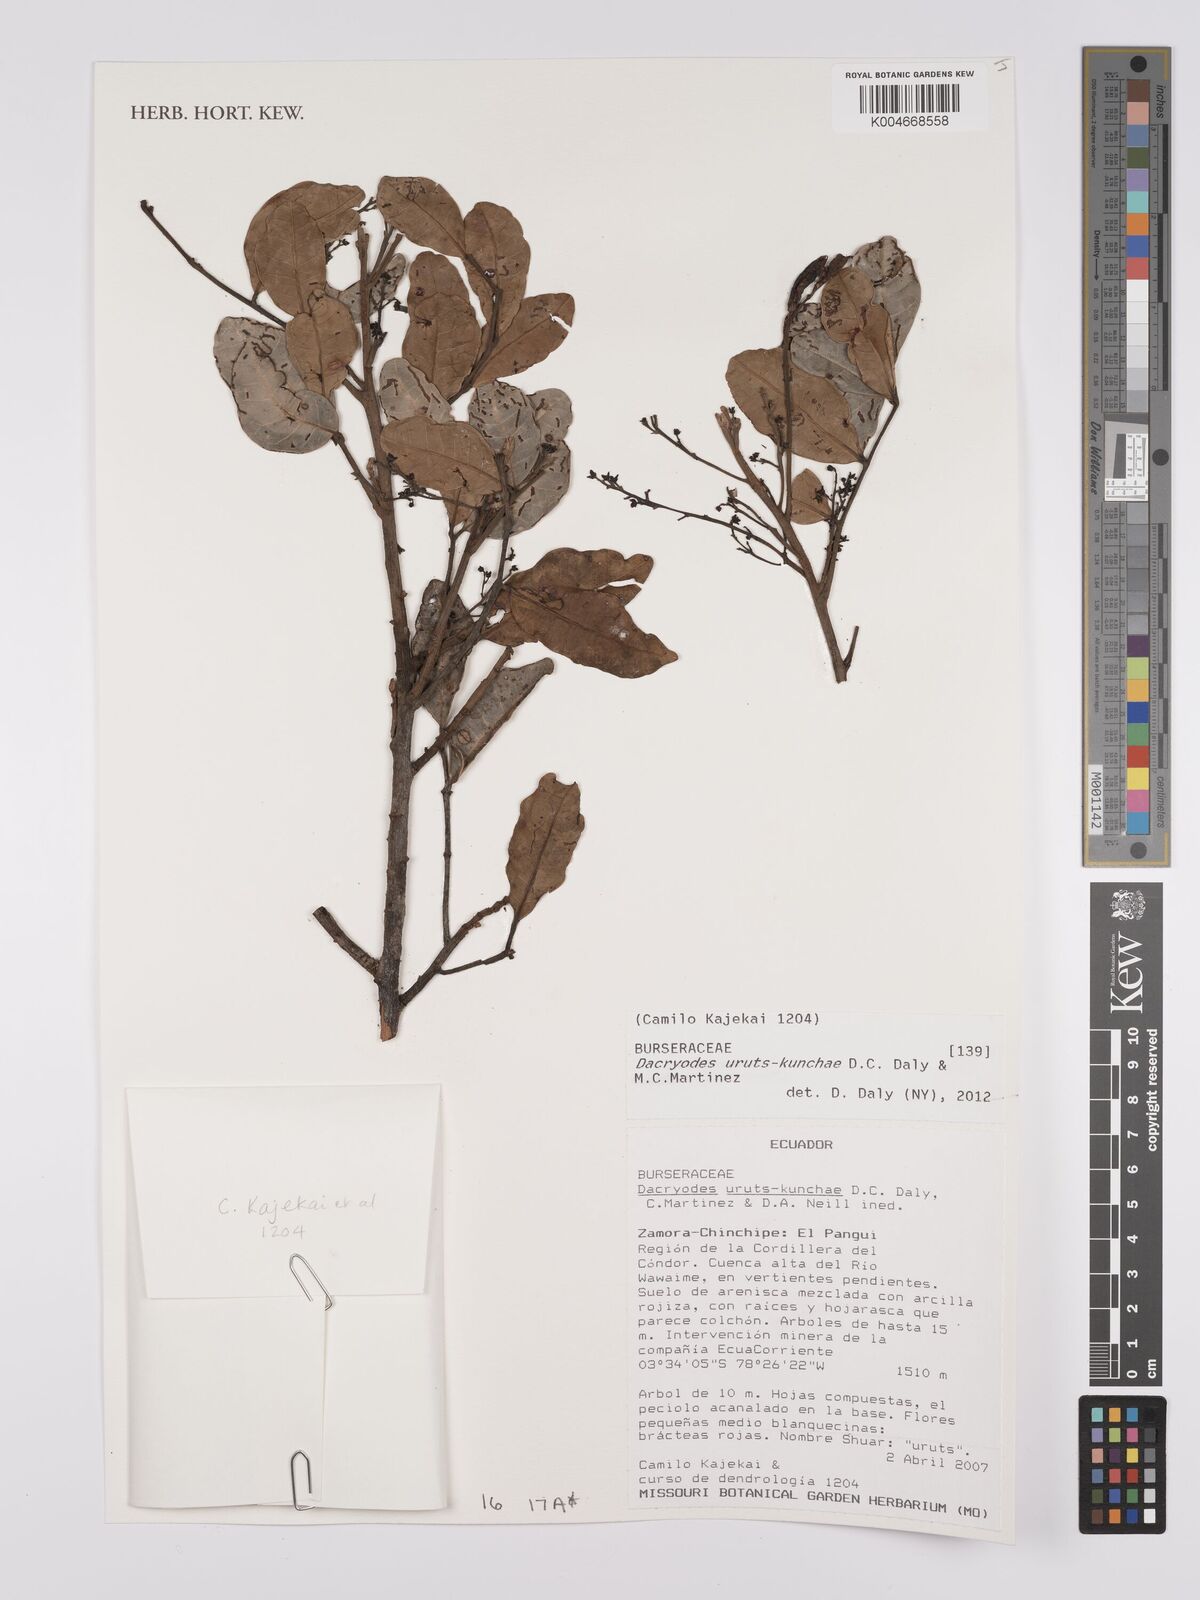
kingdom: Plantae
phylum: Tracheophyta
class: Magnoliopsida
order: Sapindales
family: Burseraceae
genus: Dacryodes
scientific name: Dacryodes uruts-kunchae
